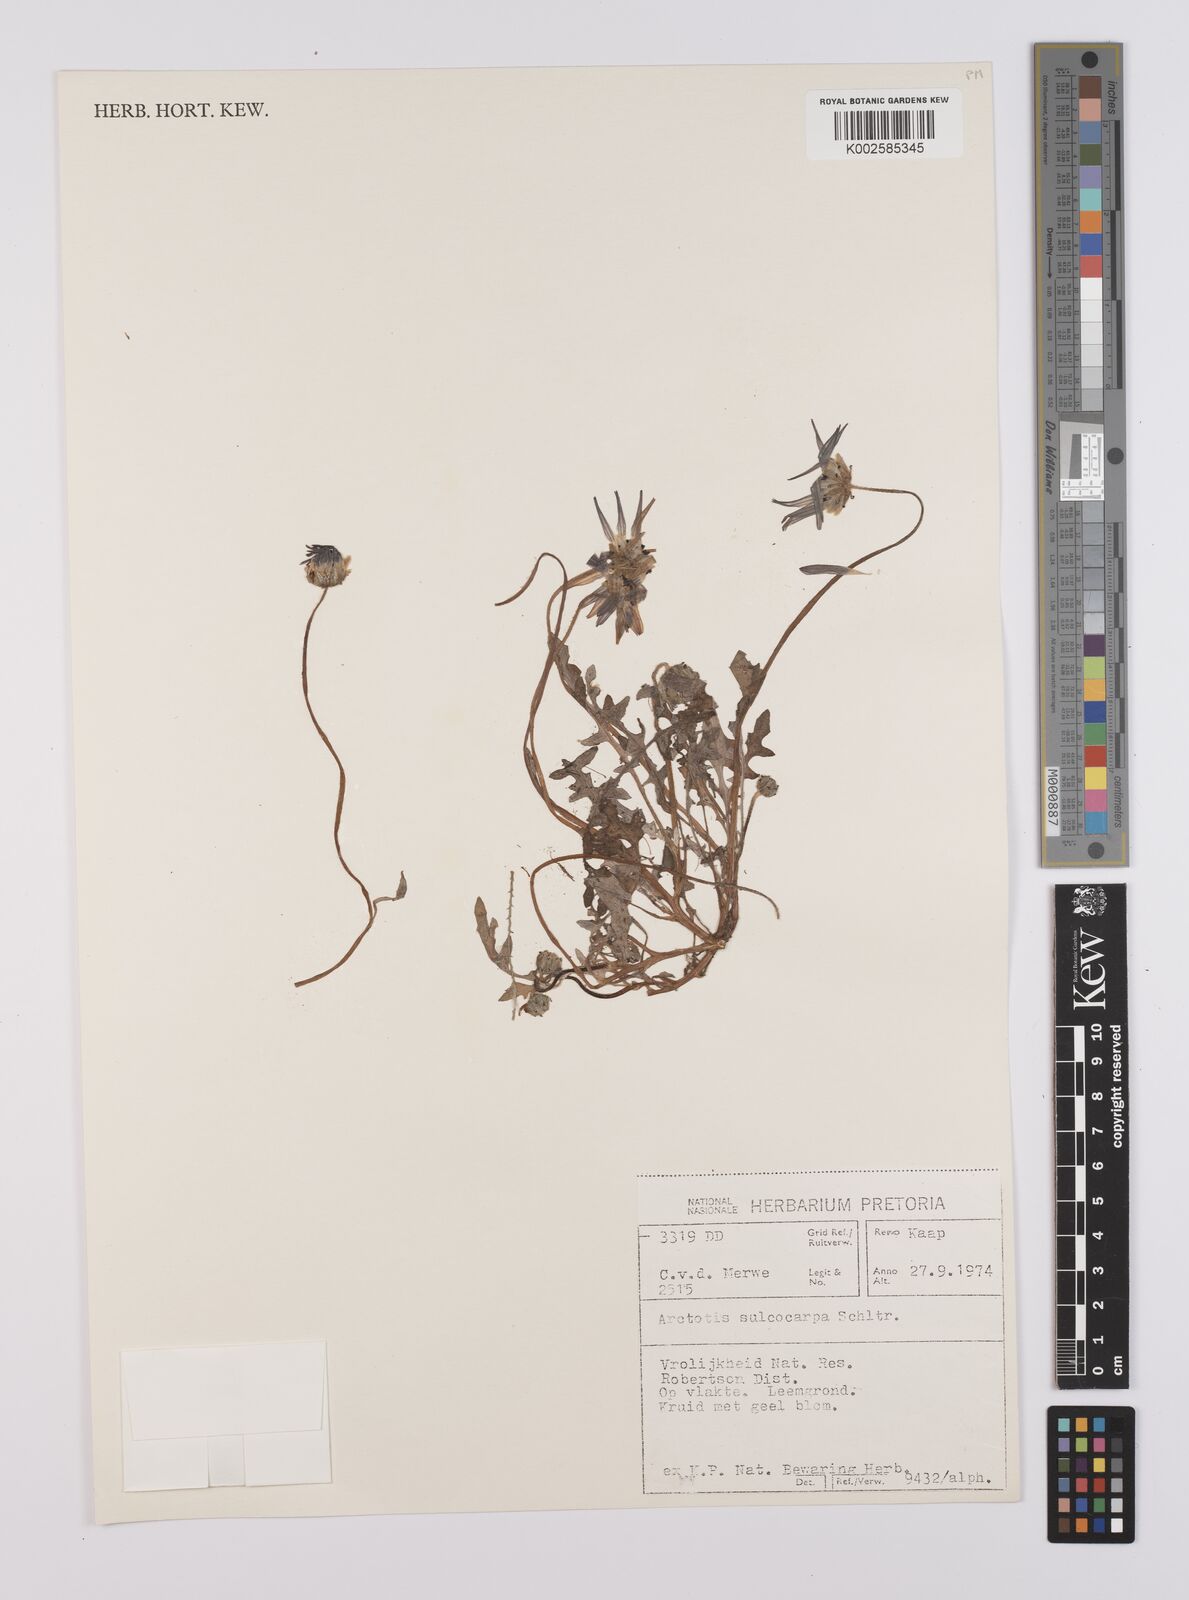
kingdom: Plantae
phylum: Tracheophyta
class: Magnoliopsida
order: Asterales
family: Asteraceae
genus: Arctotis
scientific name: Arctotis sulcocarpa
